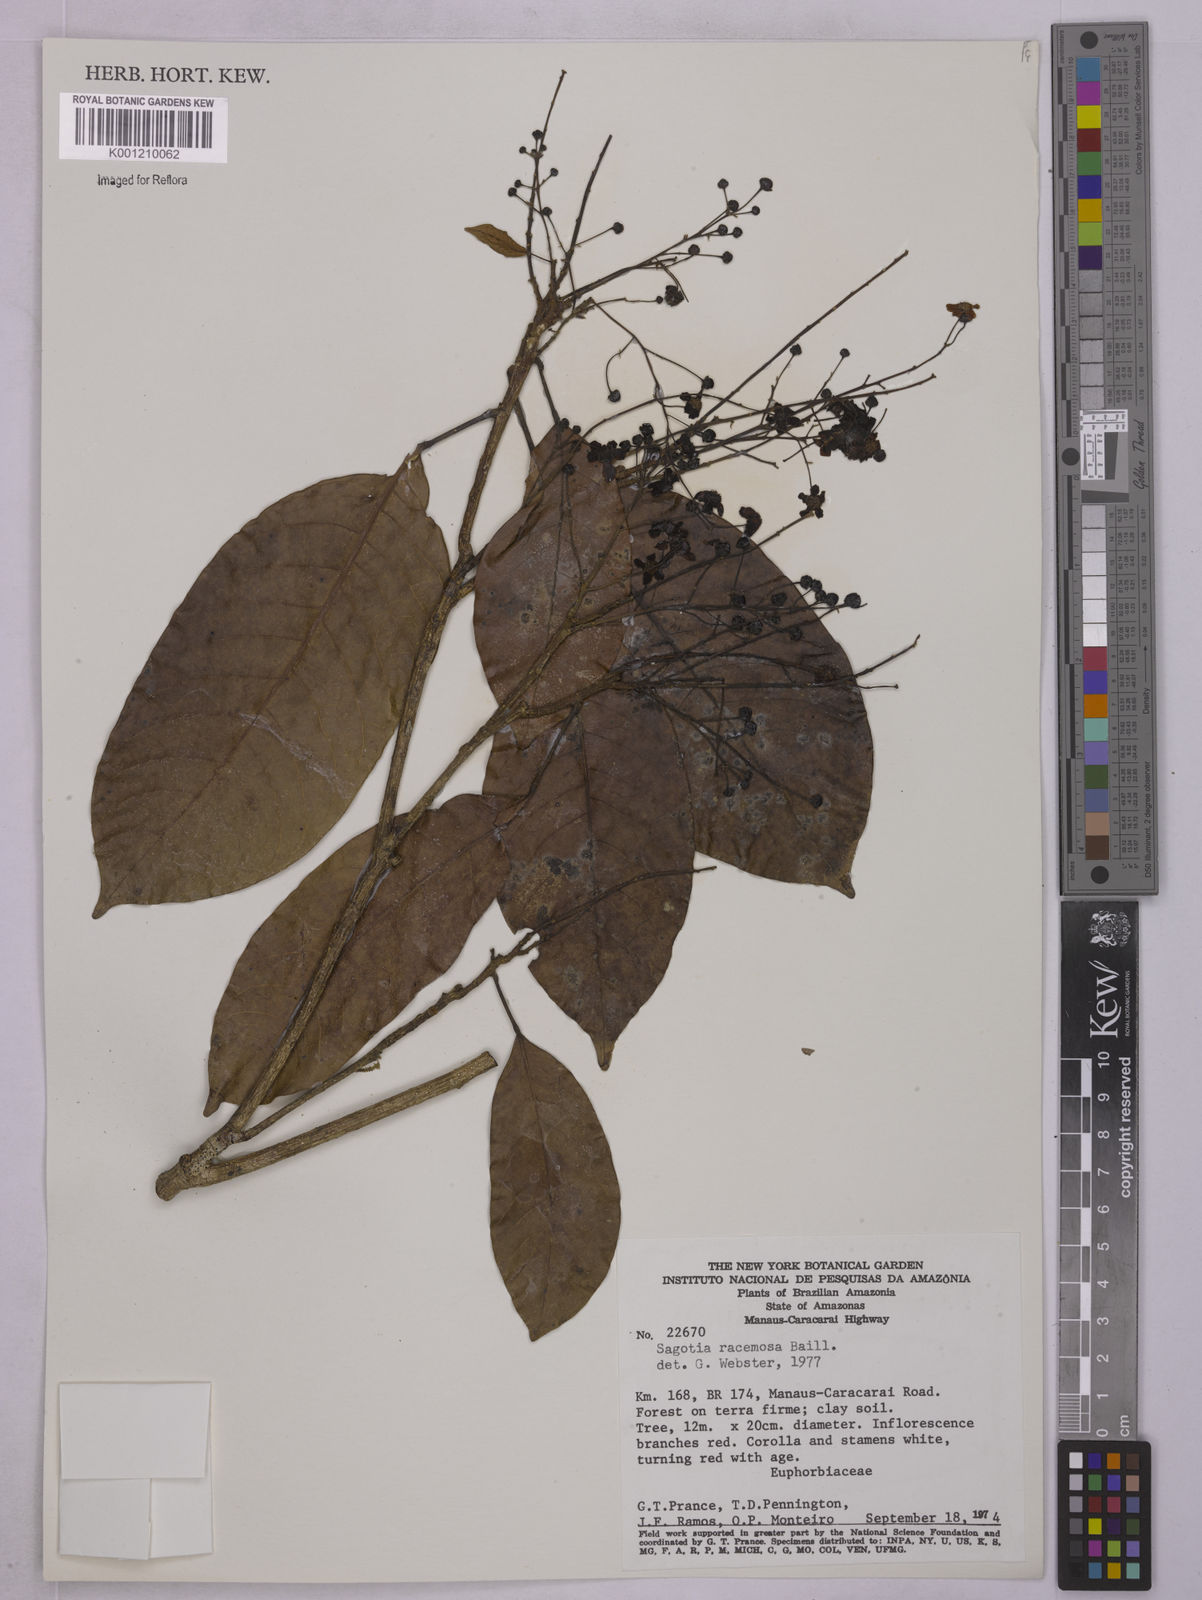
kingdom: Plantae
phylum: Tracheophyta
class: Magnoliopsida
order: Malpighiales
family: Euphorbiaceae
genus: Sagotia
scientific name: Sagotia racemosa
